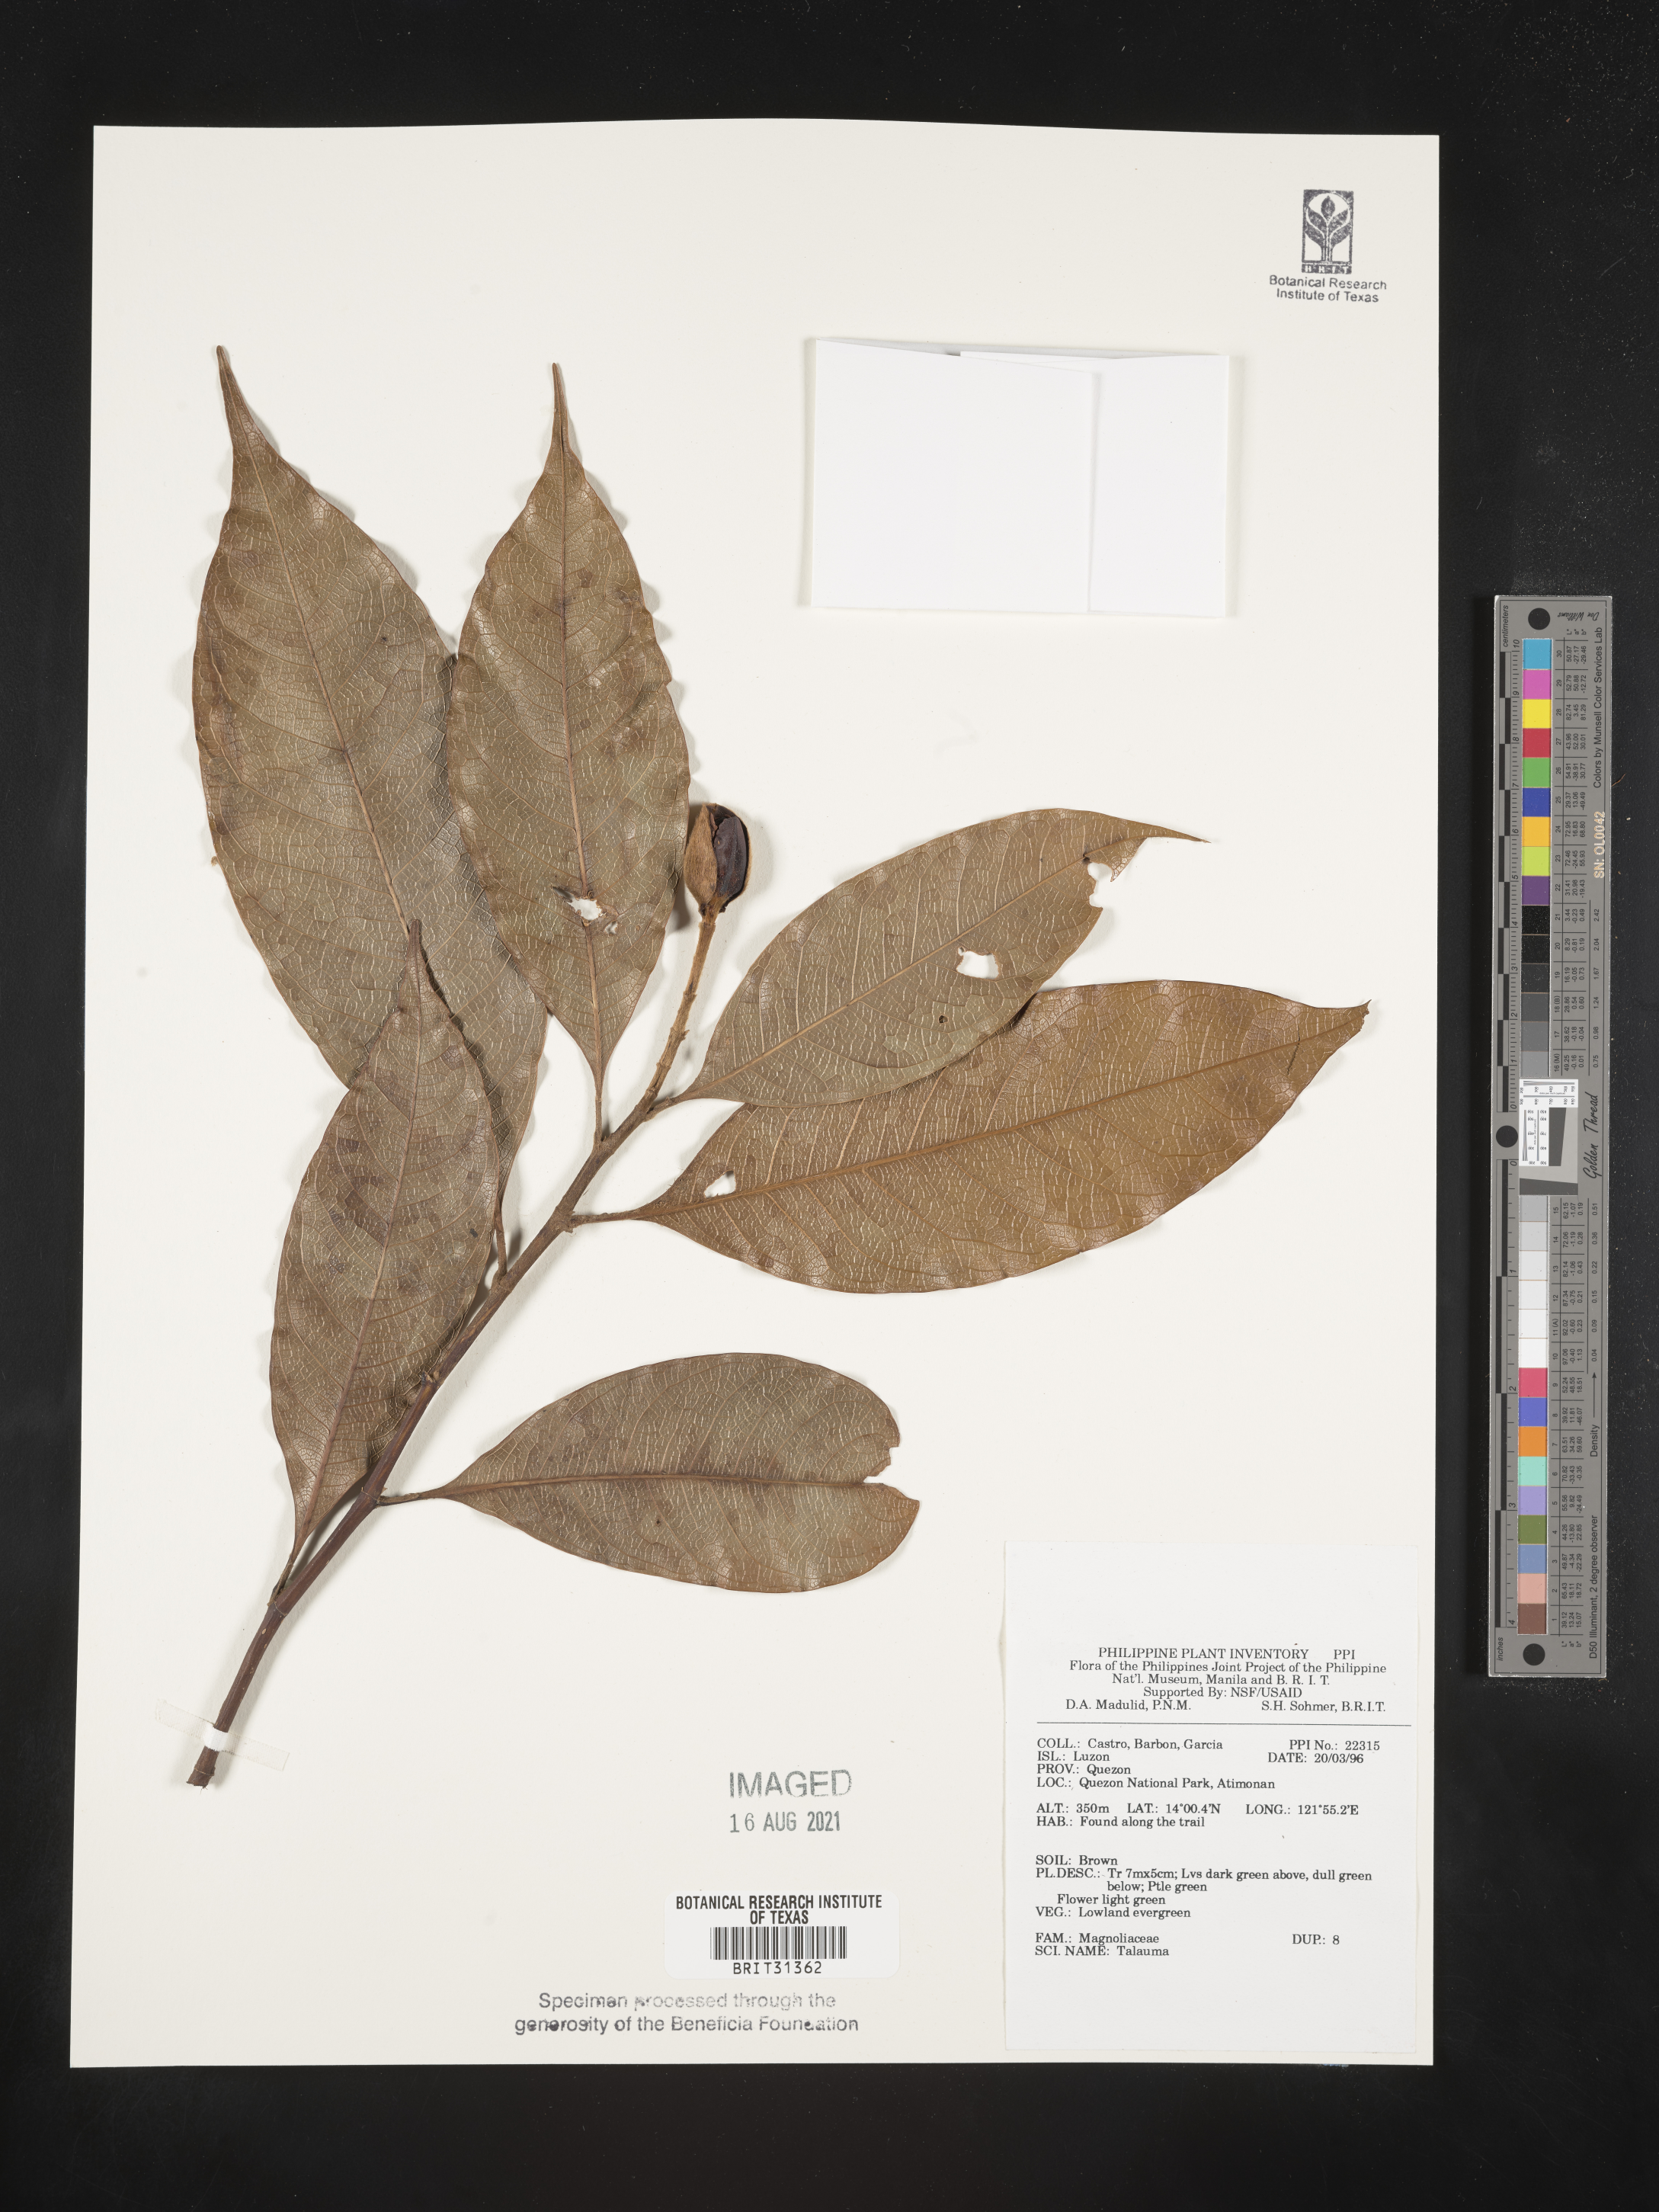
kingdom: Plantae
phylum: Tracheophyta
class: Magnoliopsida
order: Magnoliales
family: Magnoliaceae
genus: Magnolia
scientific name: Magnolia Talauma spec
